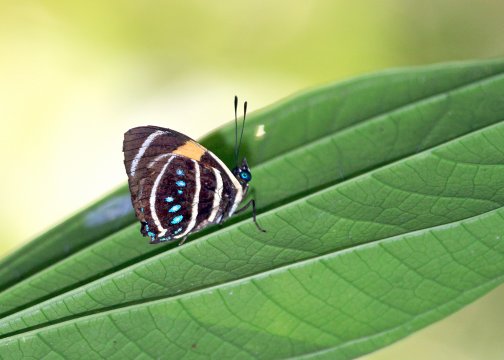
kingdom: Animalia
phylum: Arthropoda
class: Insecta
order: Lepidoptera
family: Nymphalidae
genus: Catagramma
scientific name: Catagramma Callicore lyca
